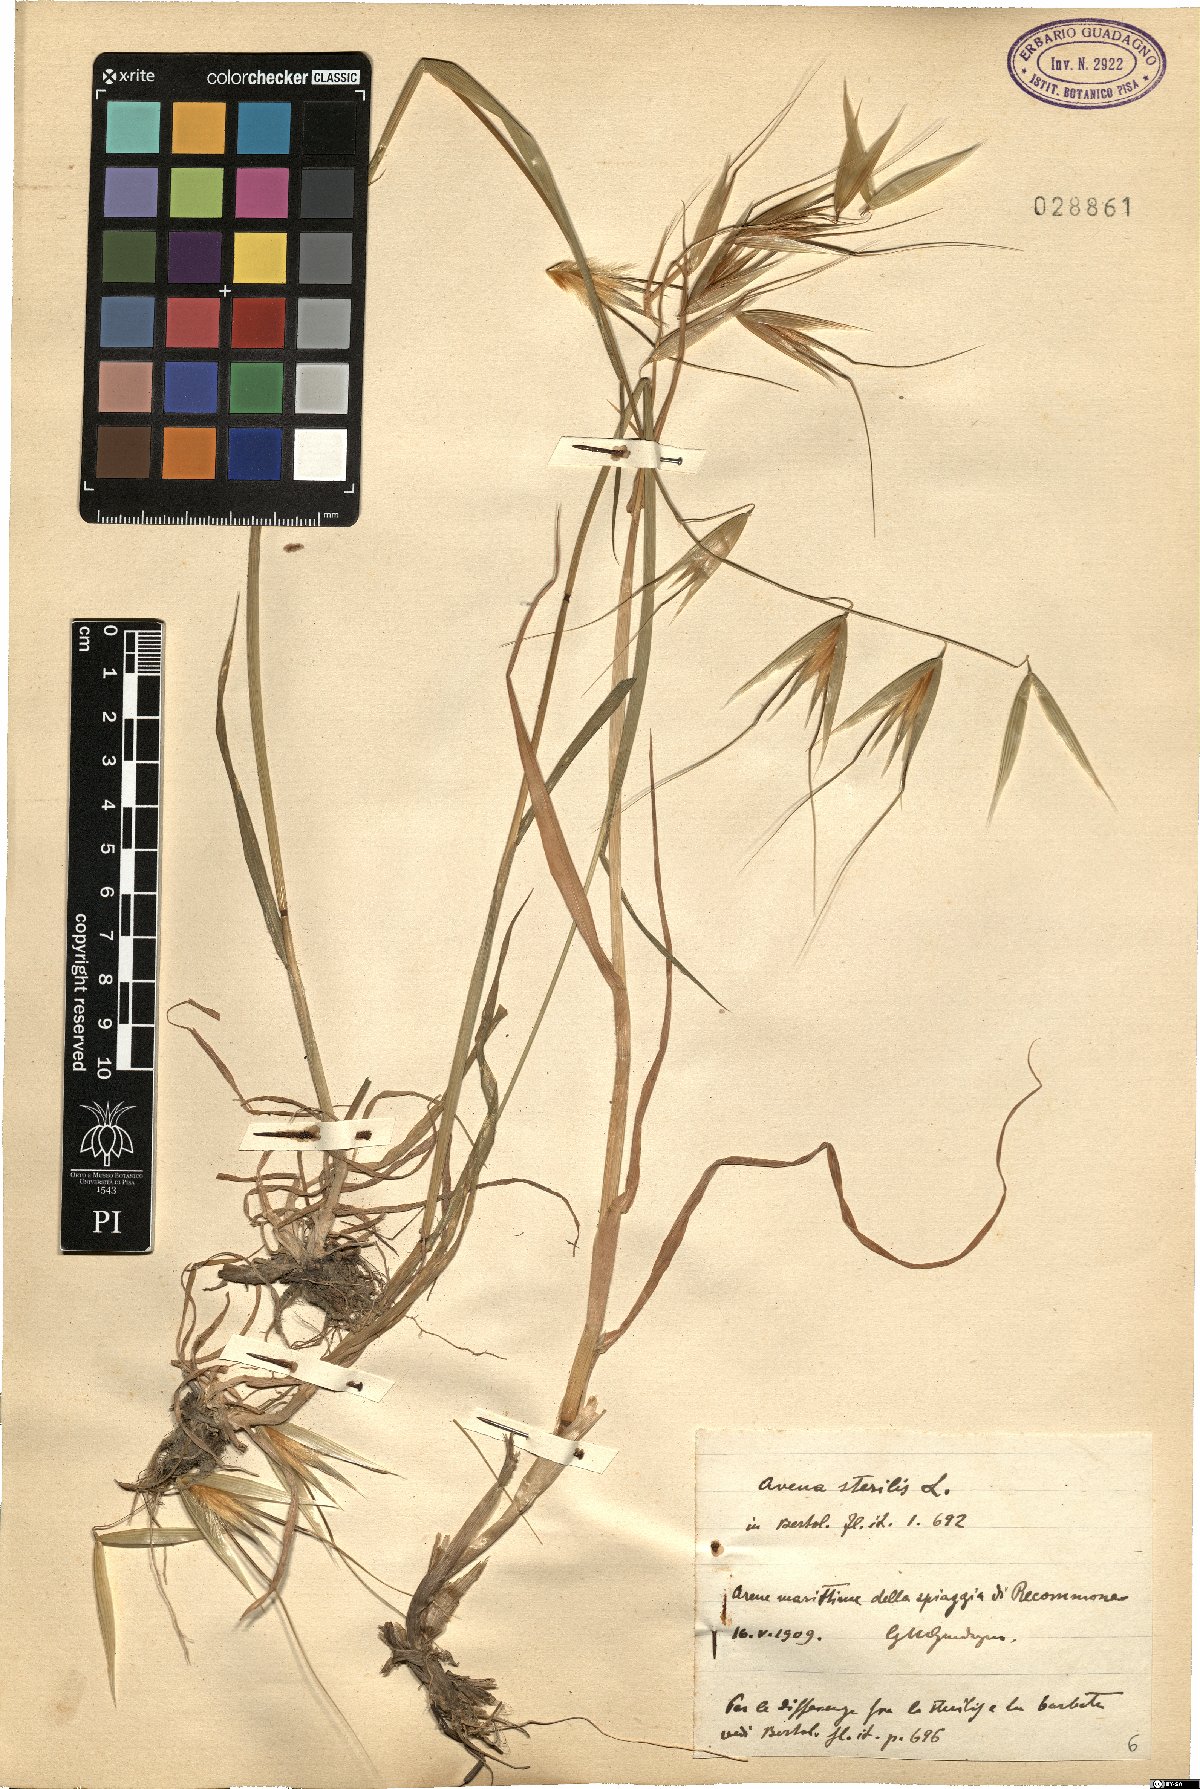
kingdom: Plantae
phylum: Tracheophyta
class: Liliopsida
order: Poales
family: Poaceae
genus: Avena
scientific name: Avena sterilis
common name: Animated oat
